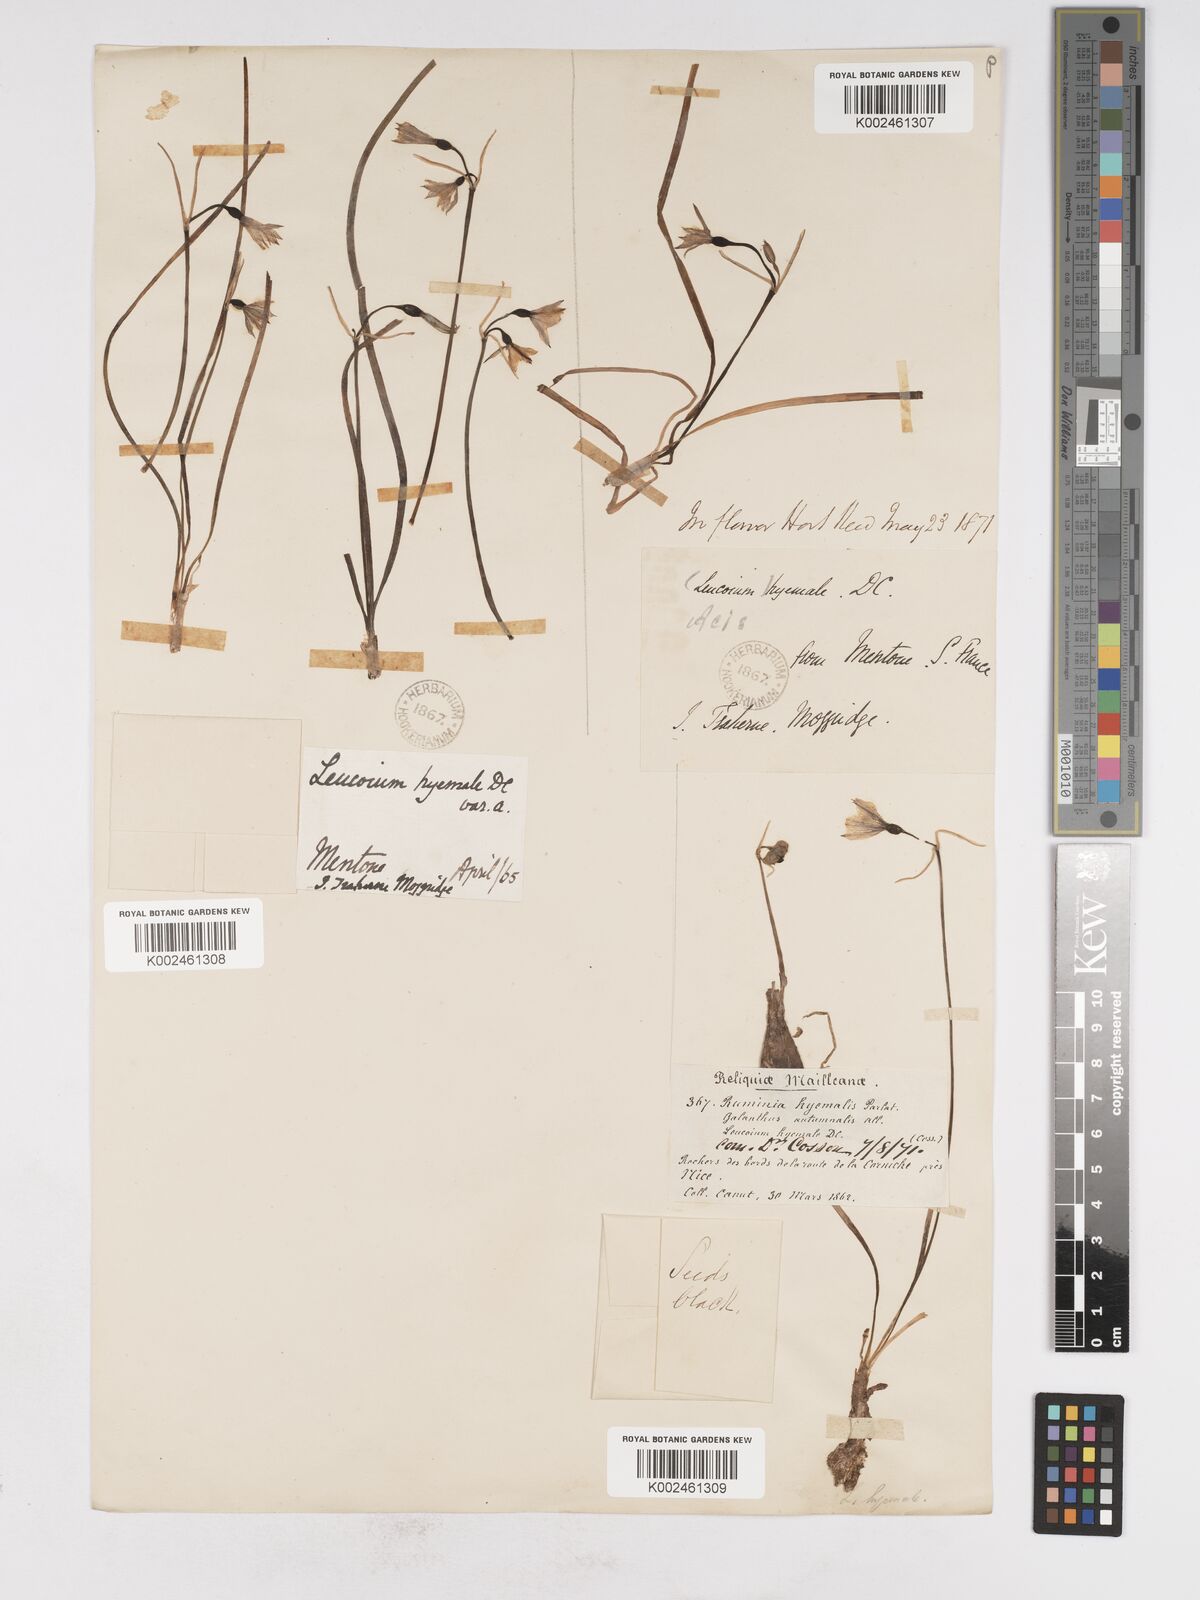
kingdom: Plantae
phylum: Tracheophyta
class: Liliopsida
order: Asparagales
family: Amaryllidaceae
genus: Acis
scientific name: Acis nicaeensis
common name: French snowflake
